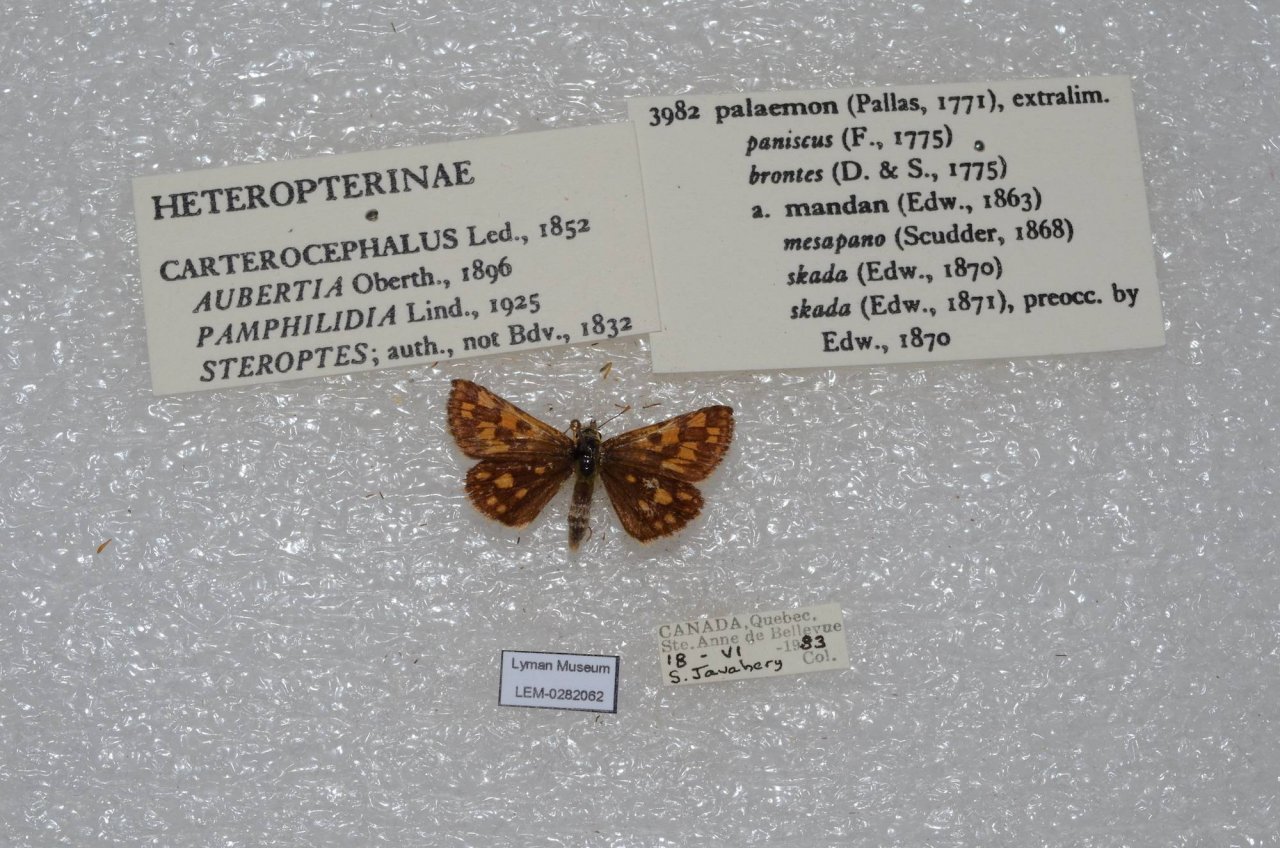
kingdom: Animalia
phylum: Arthropoda
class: Insecta
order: Lepidoptera
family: Hesperiidae
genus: Carterocephalus
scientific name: Carterocephalus palaemon
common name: Chequered Skipper
